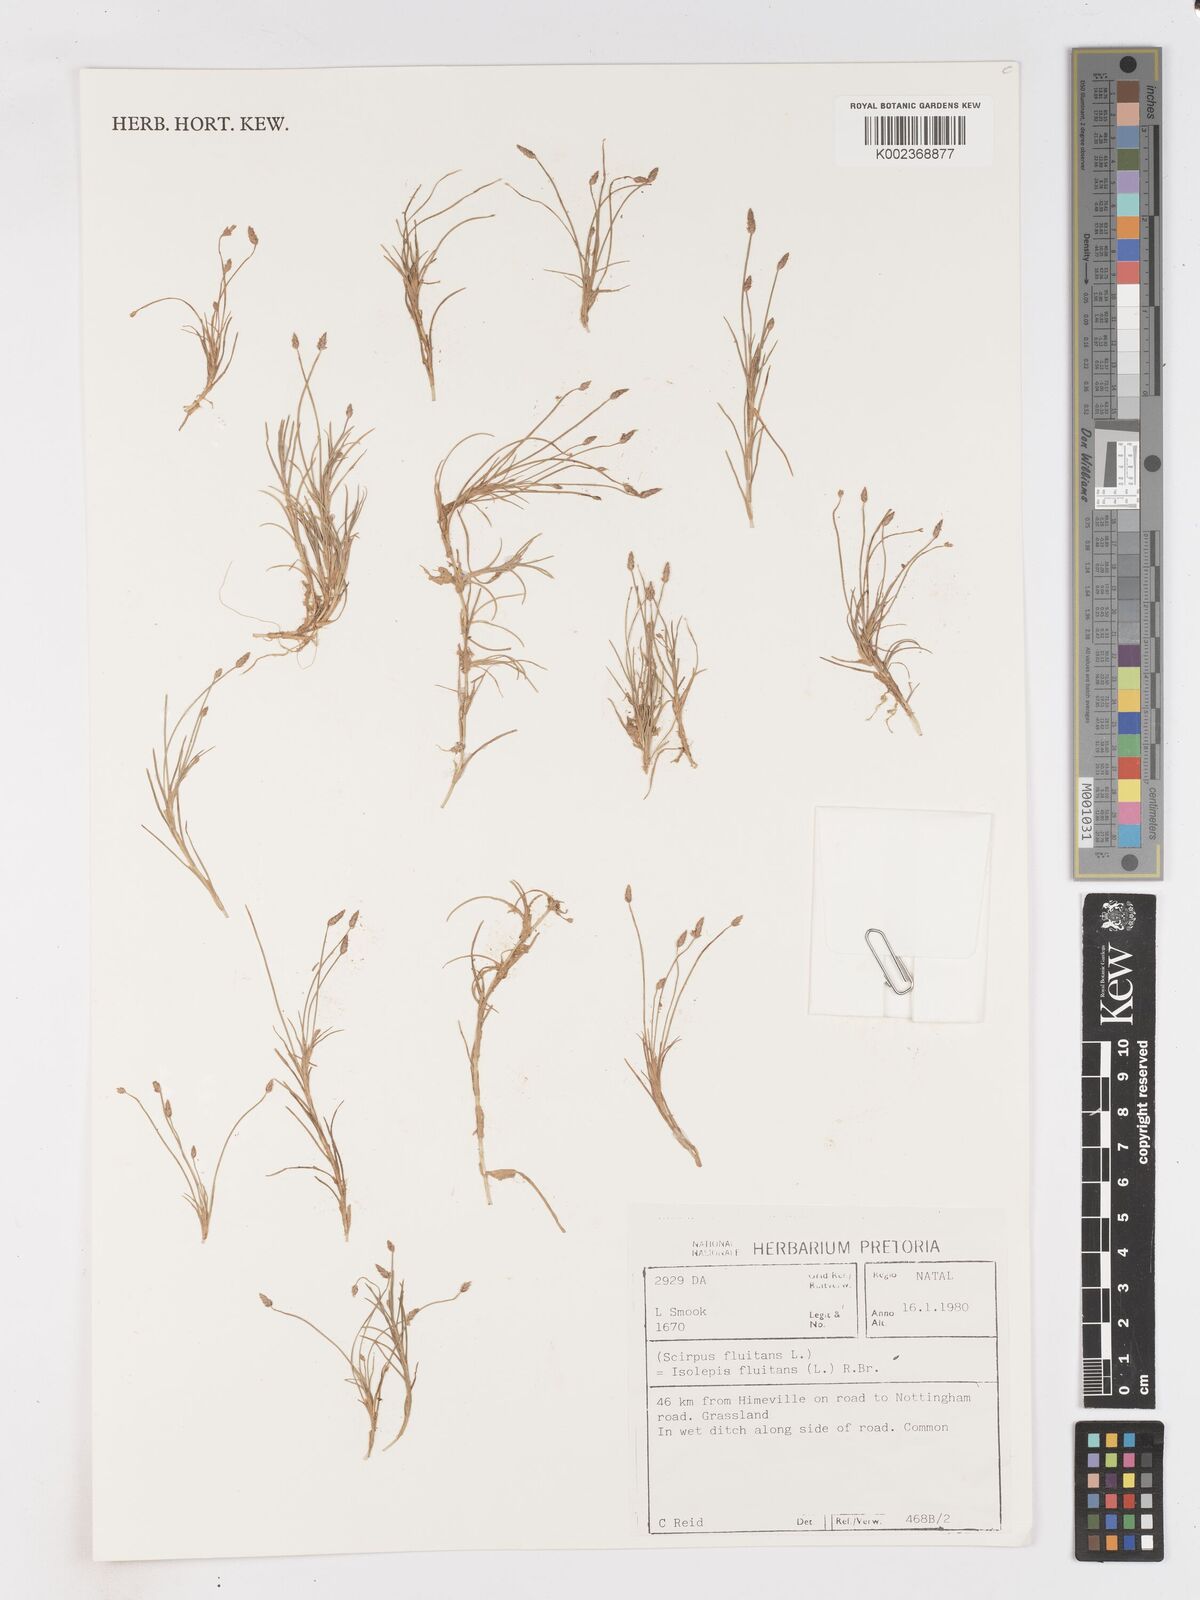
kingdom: Plantae
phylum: Tracheophyta
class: Liliopsida
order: Poales
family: Cyperaceae
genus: Isolepis
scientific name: Isolepis fluitans
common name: Floating club-rush
